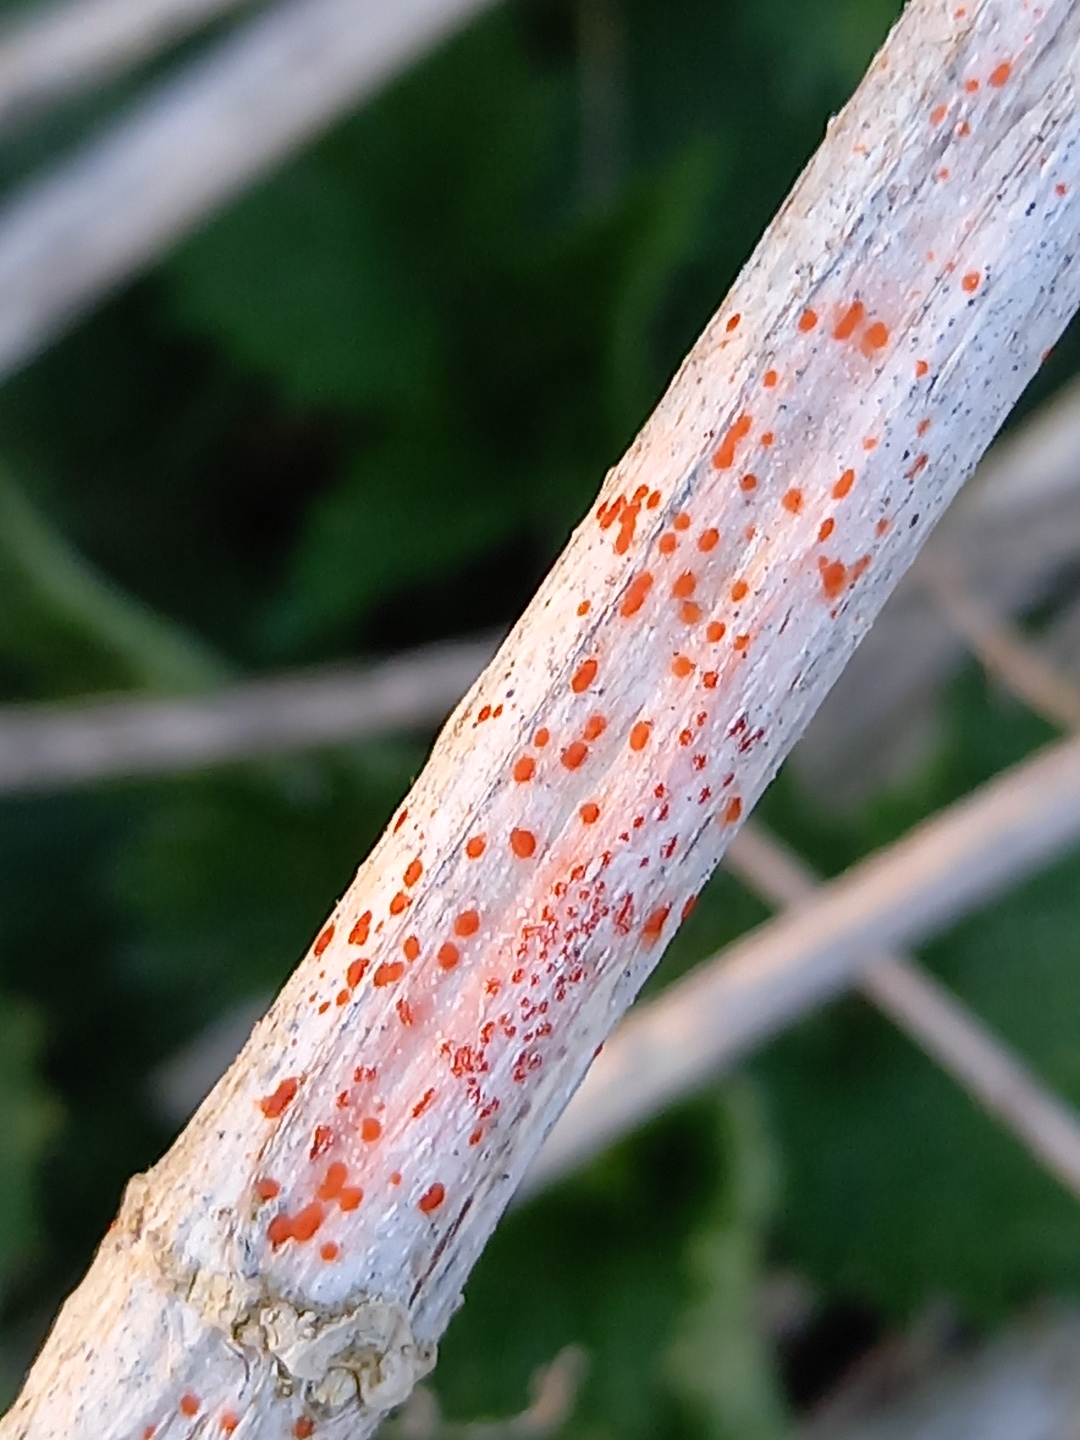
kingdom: Fungi
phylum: Ascomycota
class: Leotiomycetes
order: Helotiales
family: Calloriaceae
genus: Calloria
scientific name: Calloria urticae
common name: nælde-orangeskive
